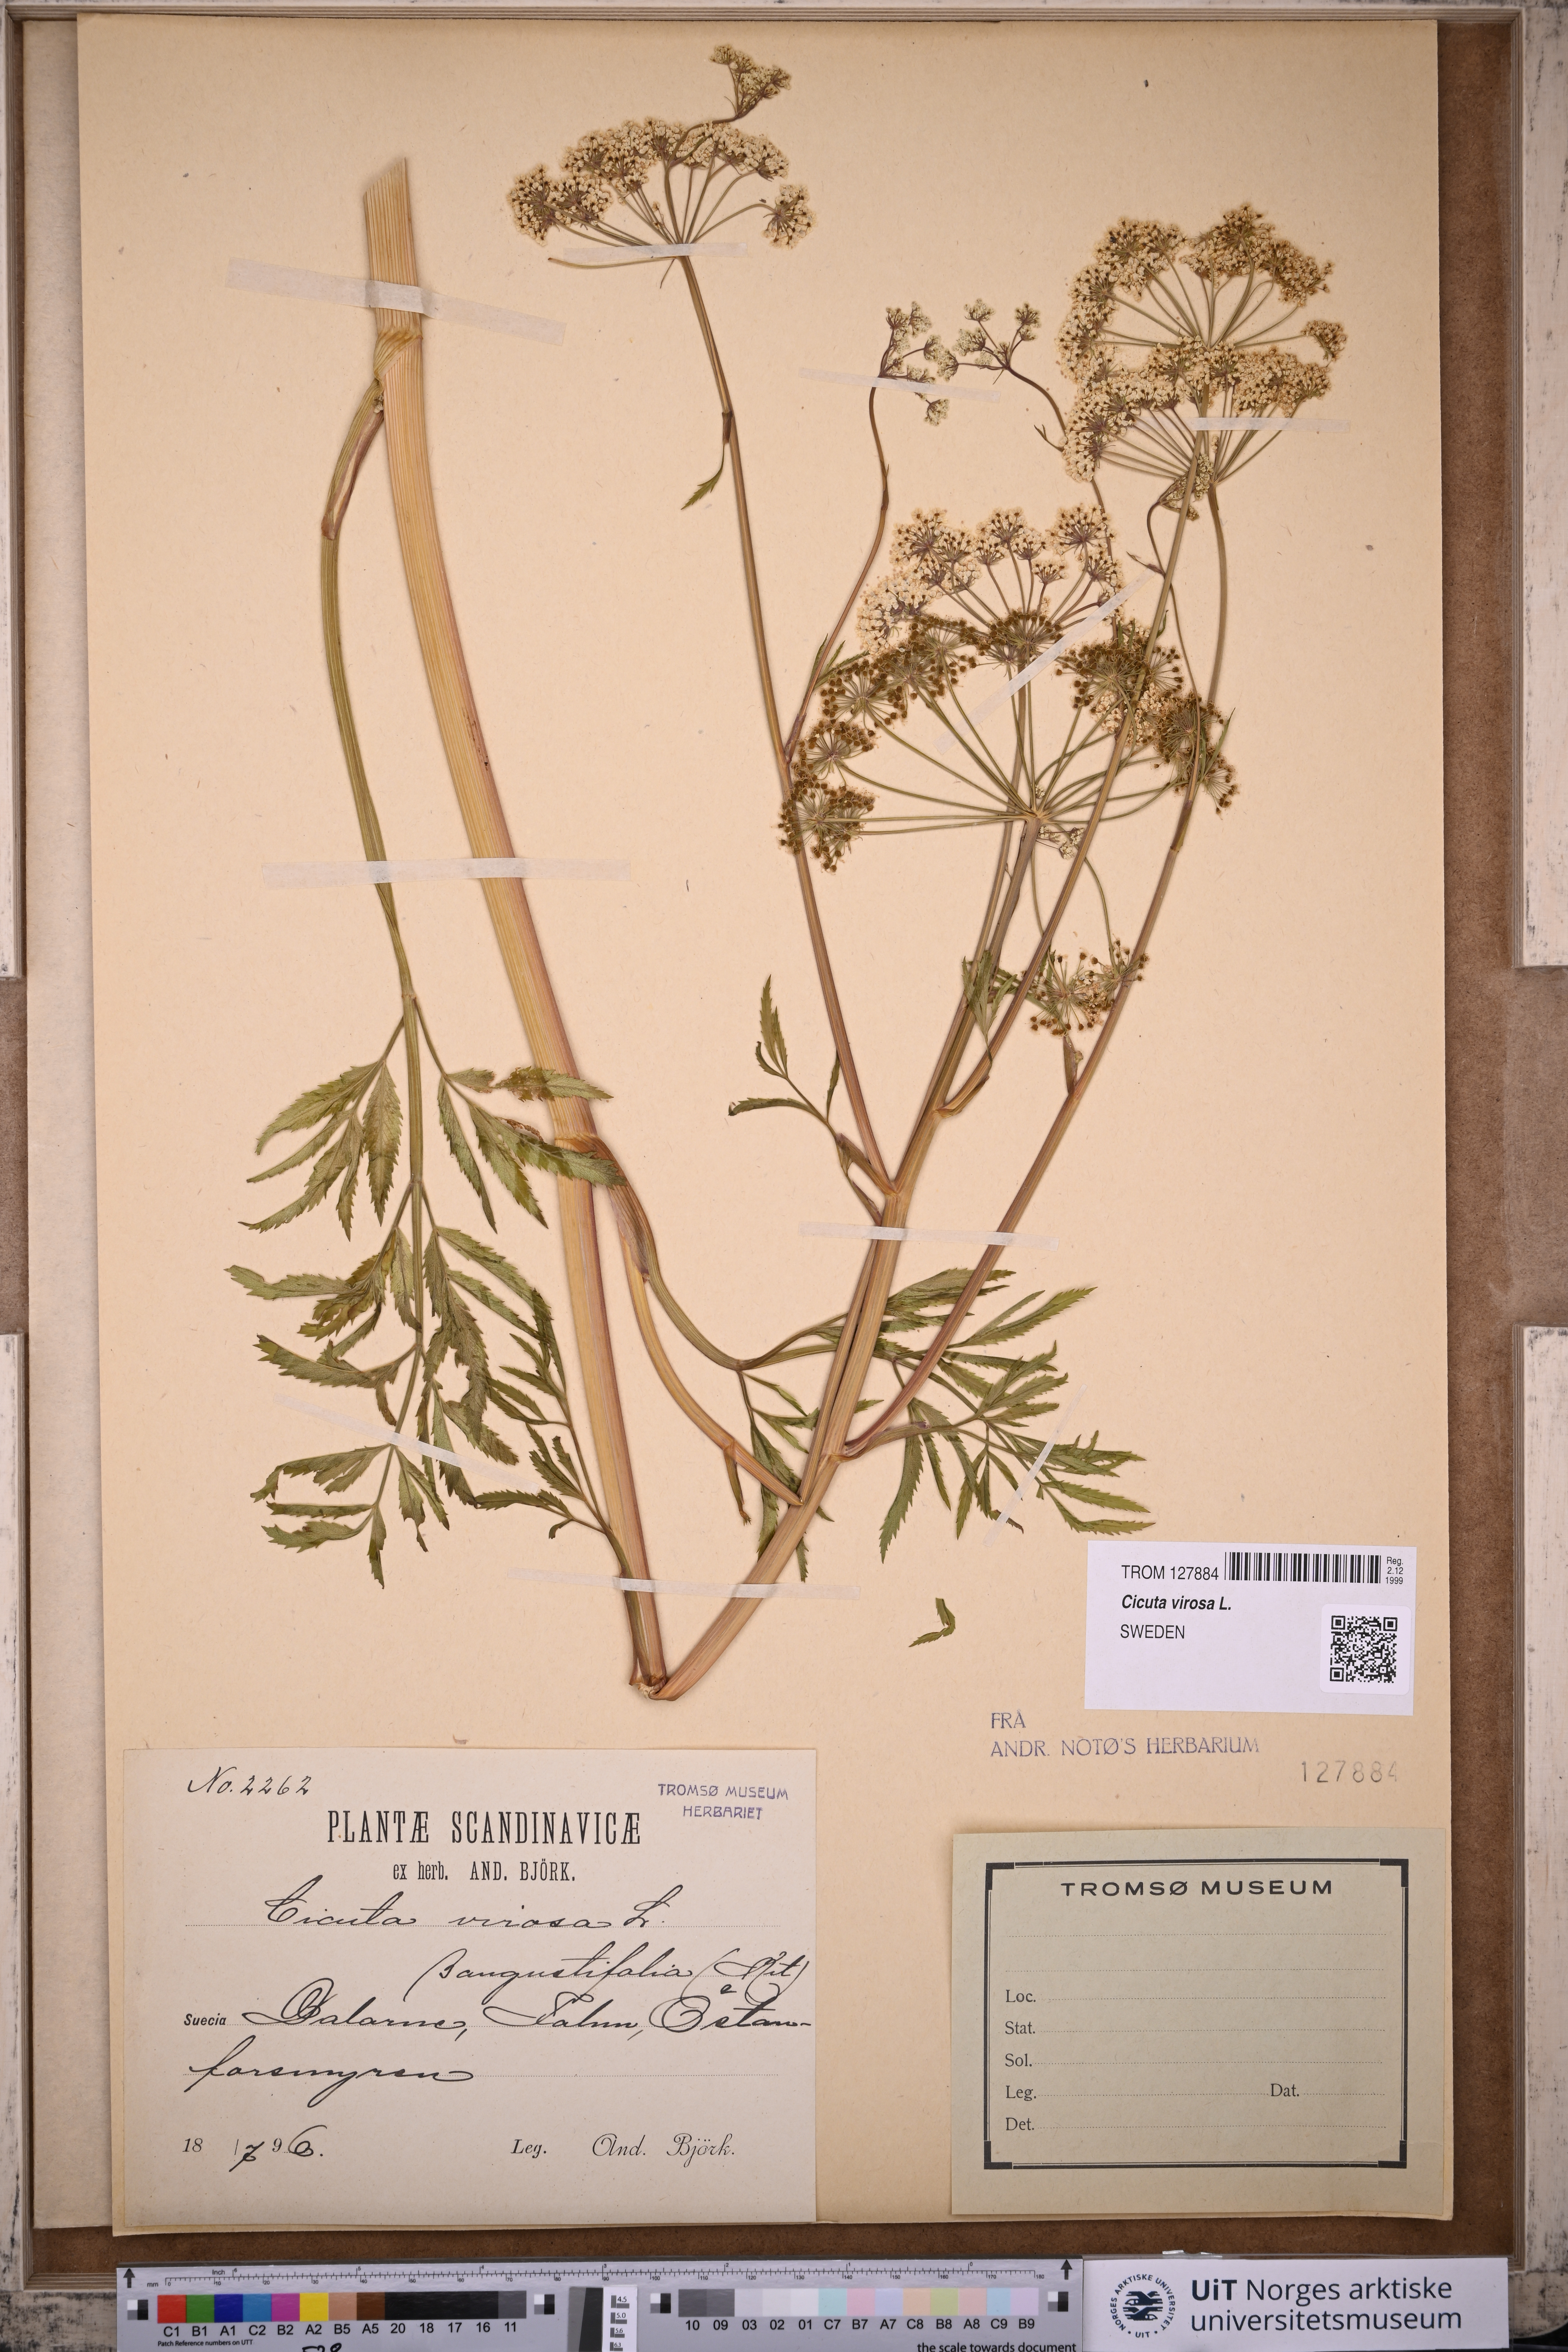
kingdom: Plantae
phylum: Tracheophyta
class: Magnoliopsida
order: Apiales
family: Apiaceae
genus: Cicuta
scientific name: Cicuta virosa
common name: Cowbane
